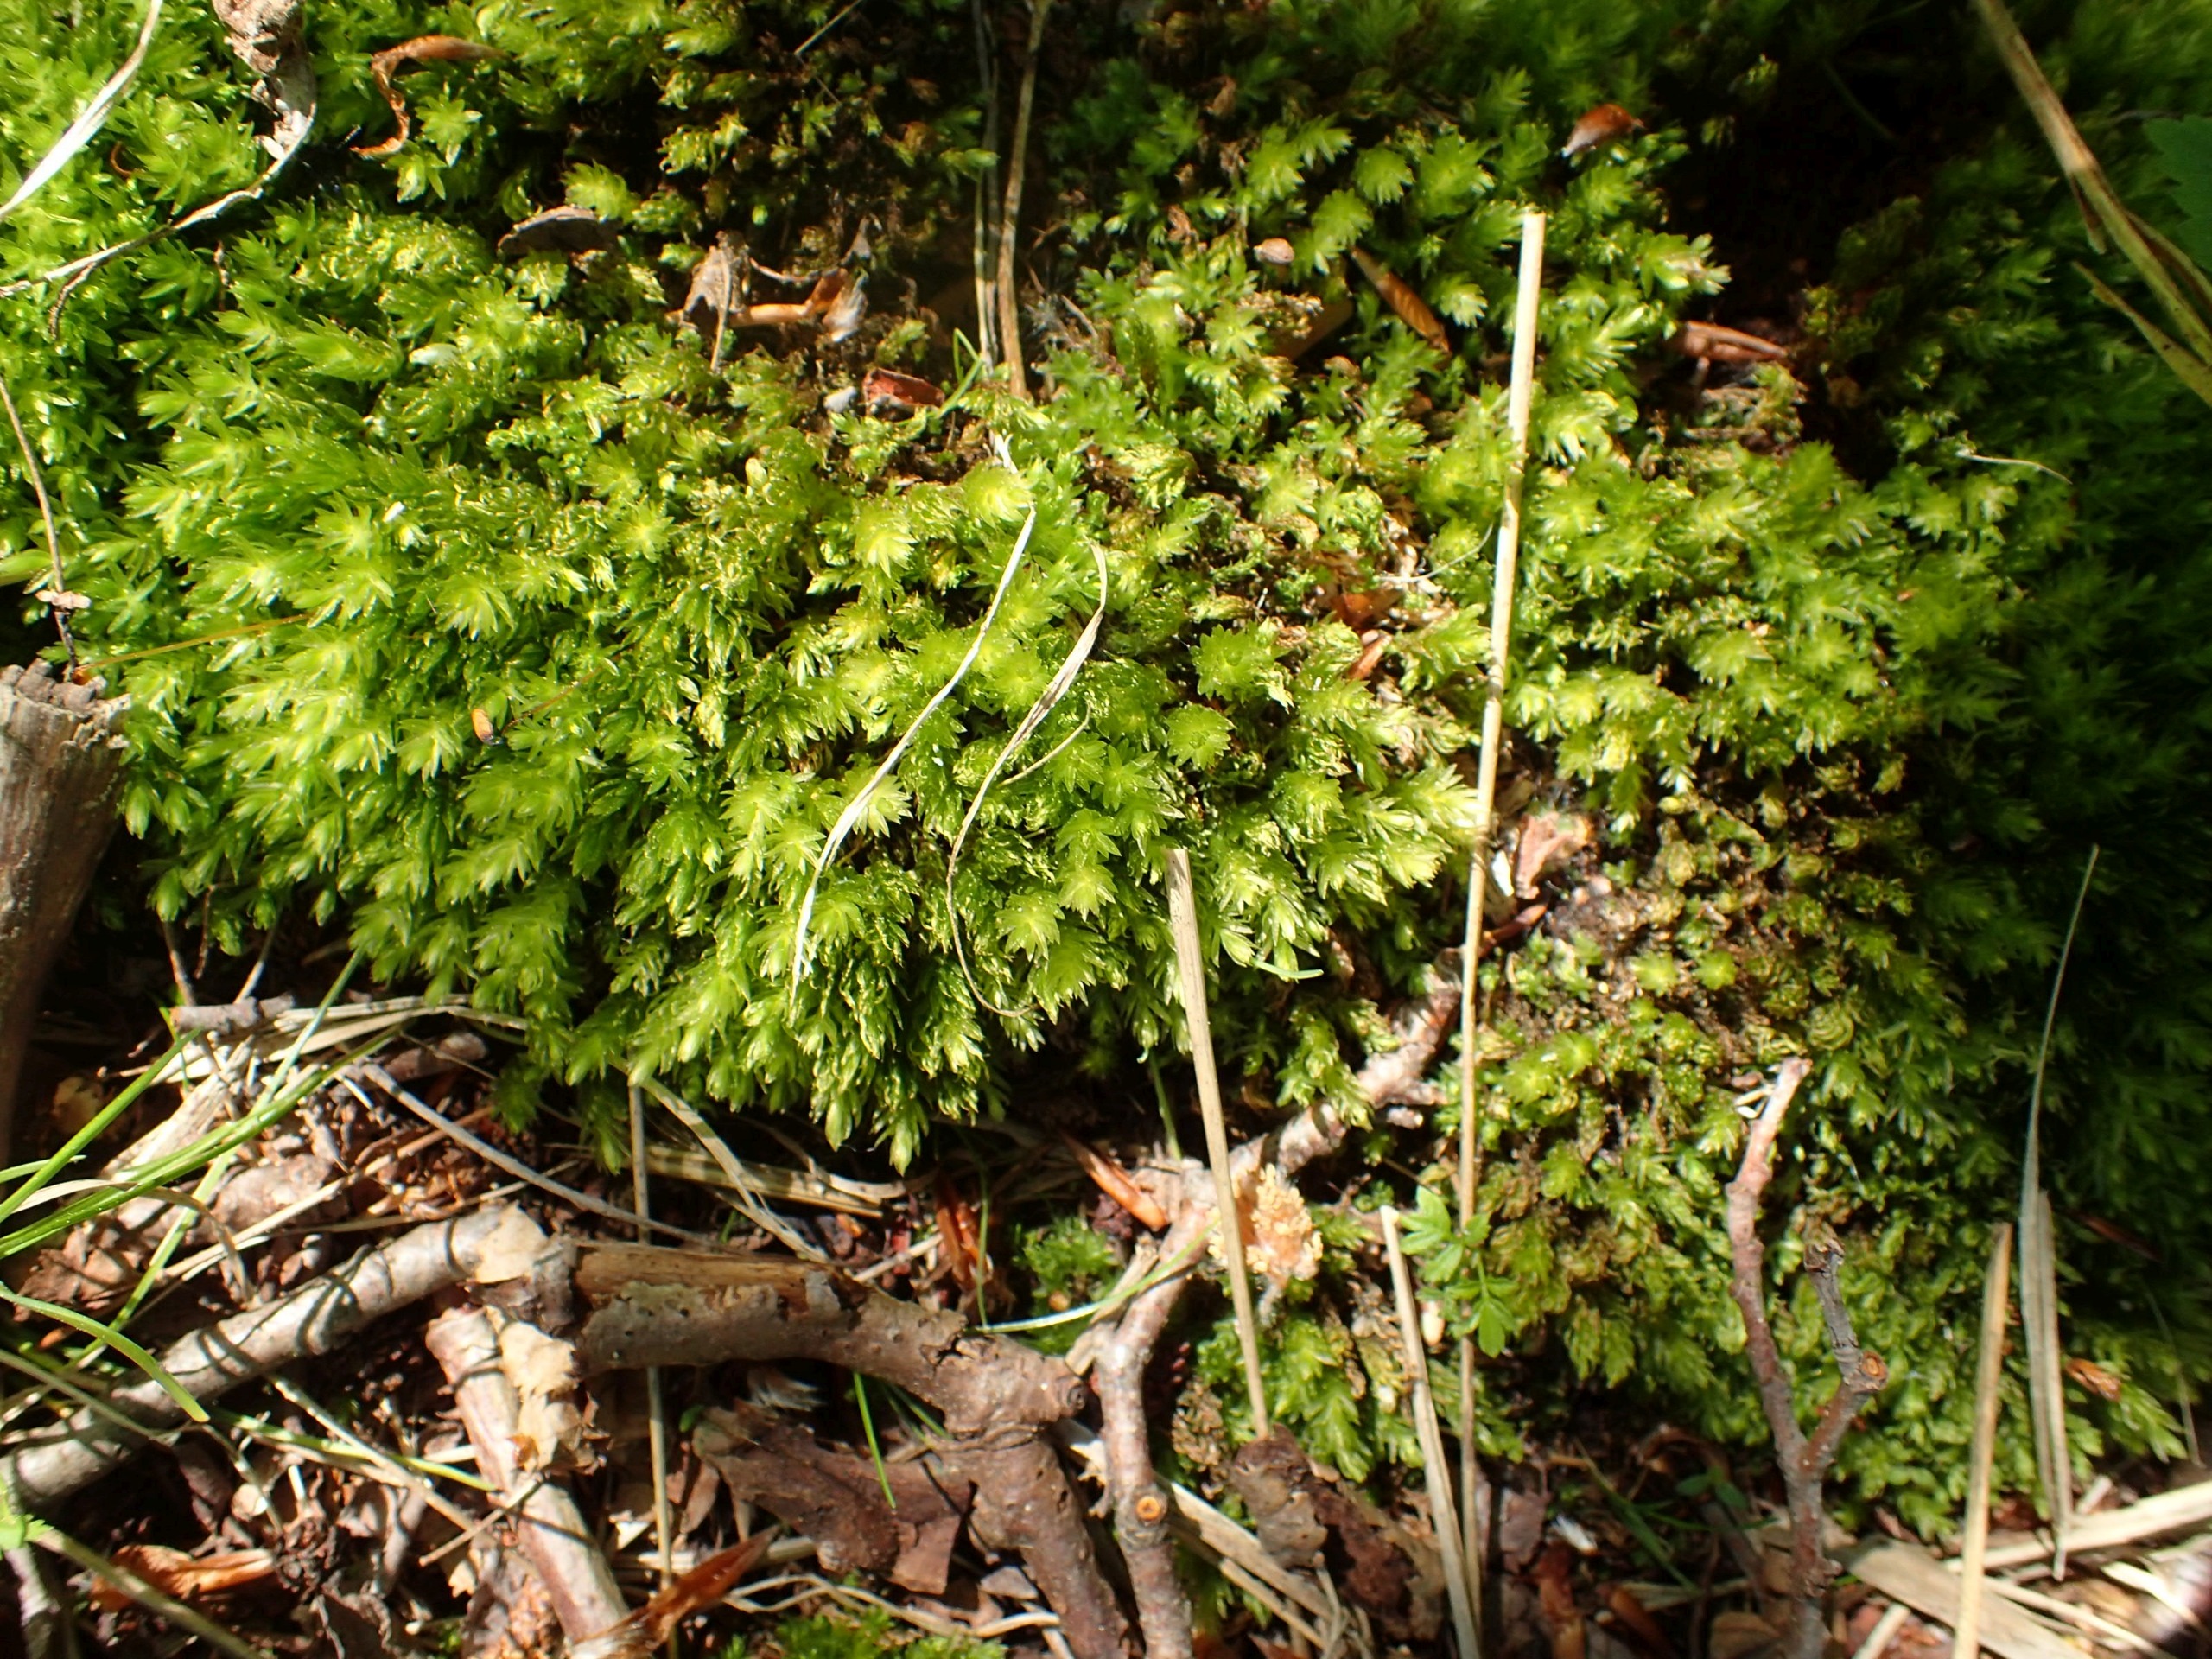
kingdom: Plantae
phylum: Bryophyta
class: Bryopsida
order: Bryales
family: Mniaceae
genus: Mnium
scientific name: Mnium hornum
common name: Brunfiltet stjernemos
